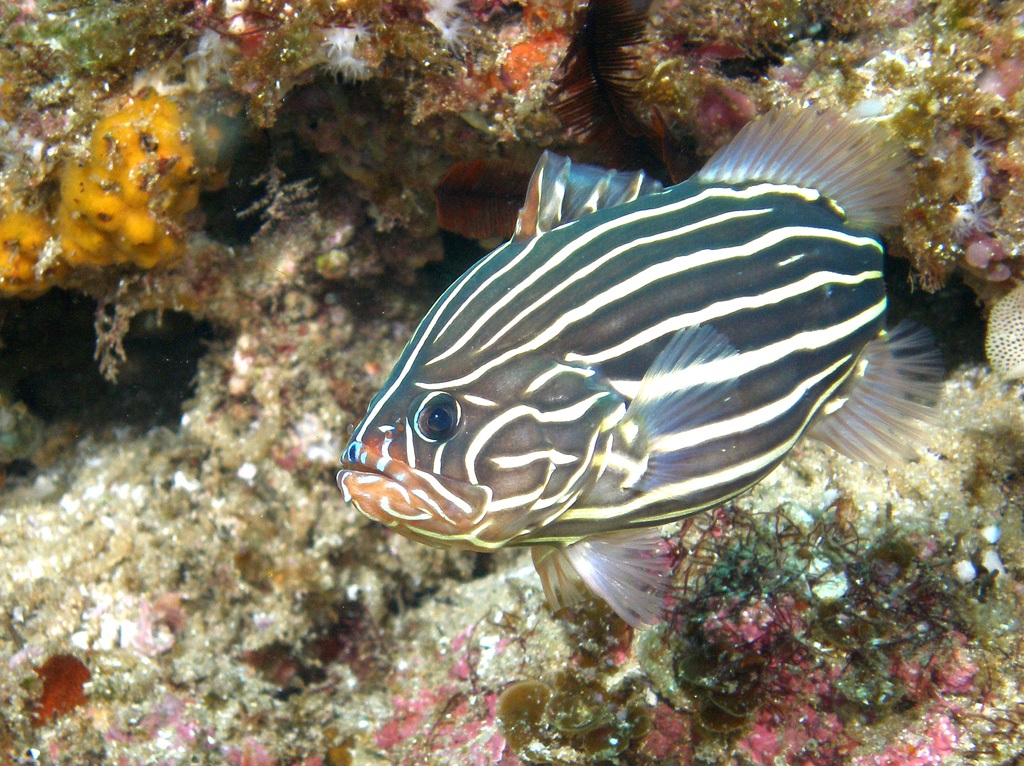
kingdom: Animalia
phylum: Chordata
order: Perciformes
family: Serranidae
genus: Grammistes
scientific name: Grammistes sexlineatus
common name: Sixline soapfish
